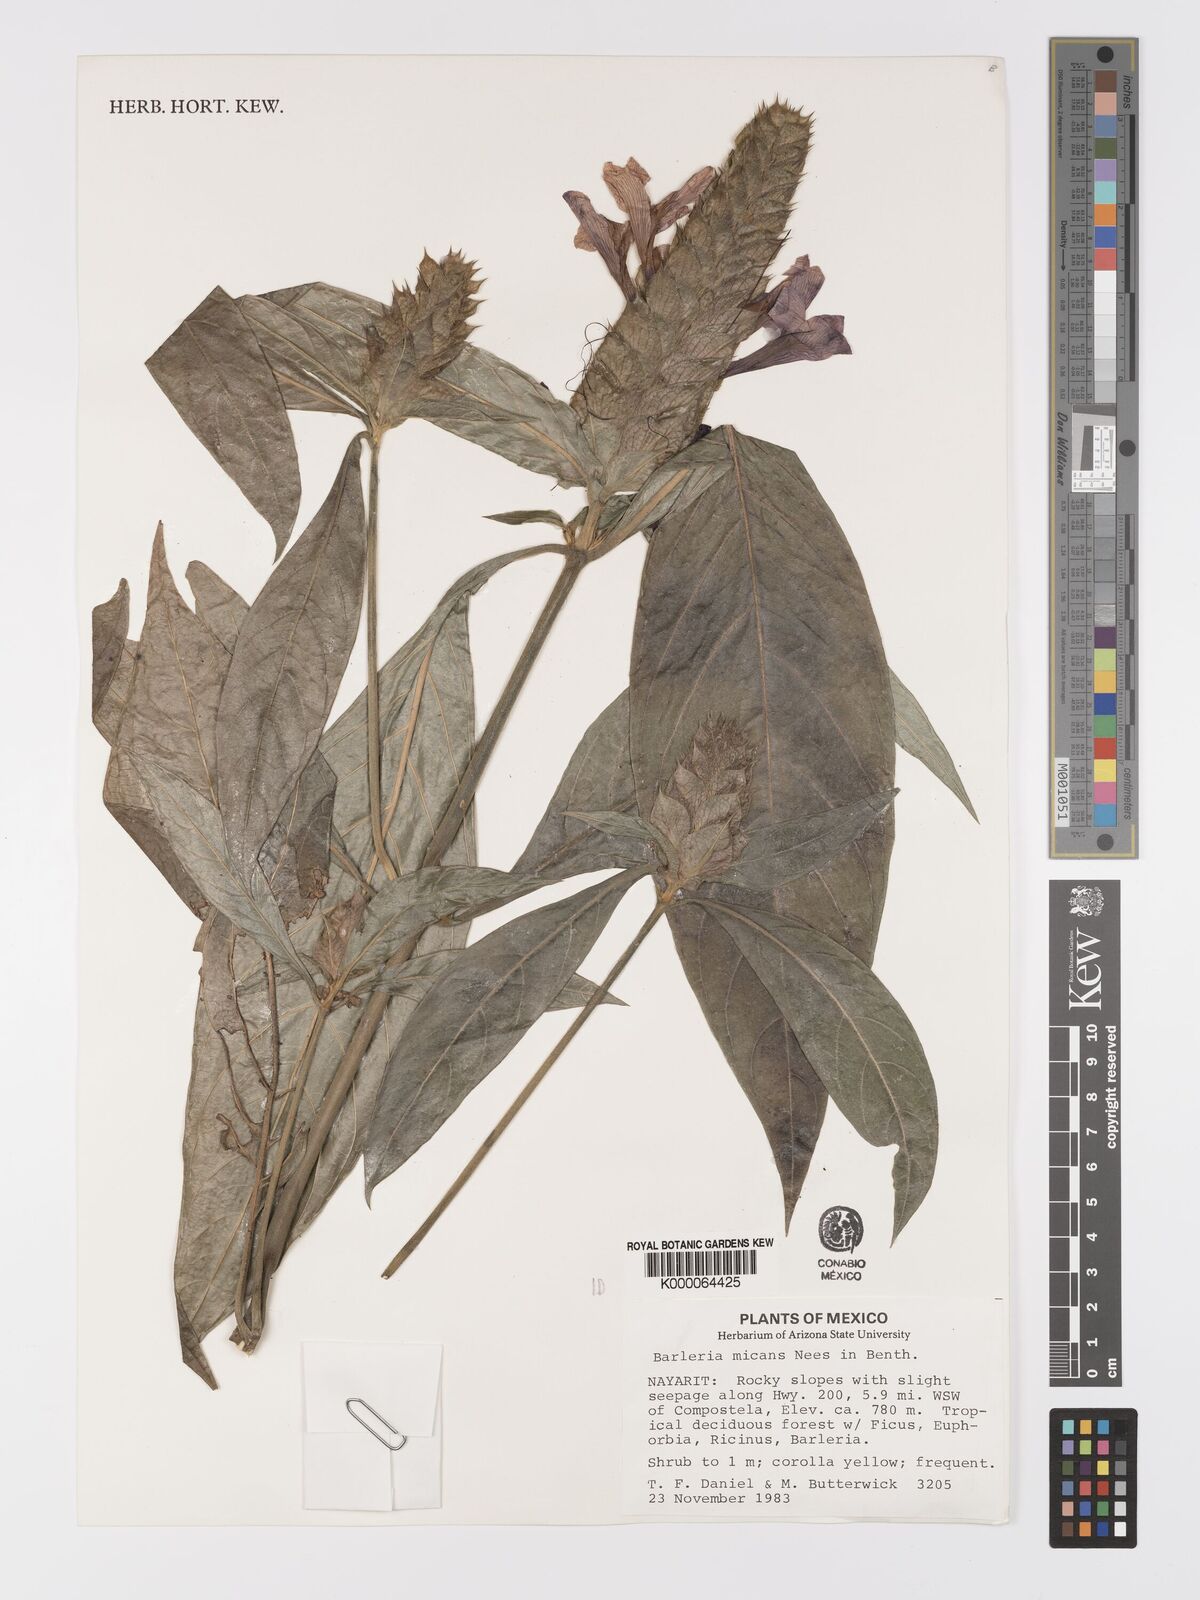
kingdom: Plantae
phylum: Tracheophyta
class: Magnoliopsida
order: Lamiales
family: Acanthaceae
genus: Barleria
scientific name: Barleria oenotheroides
